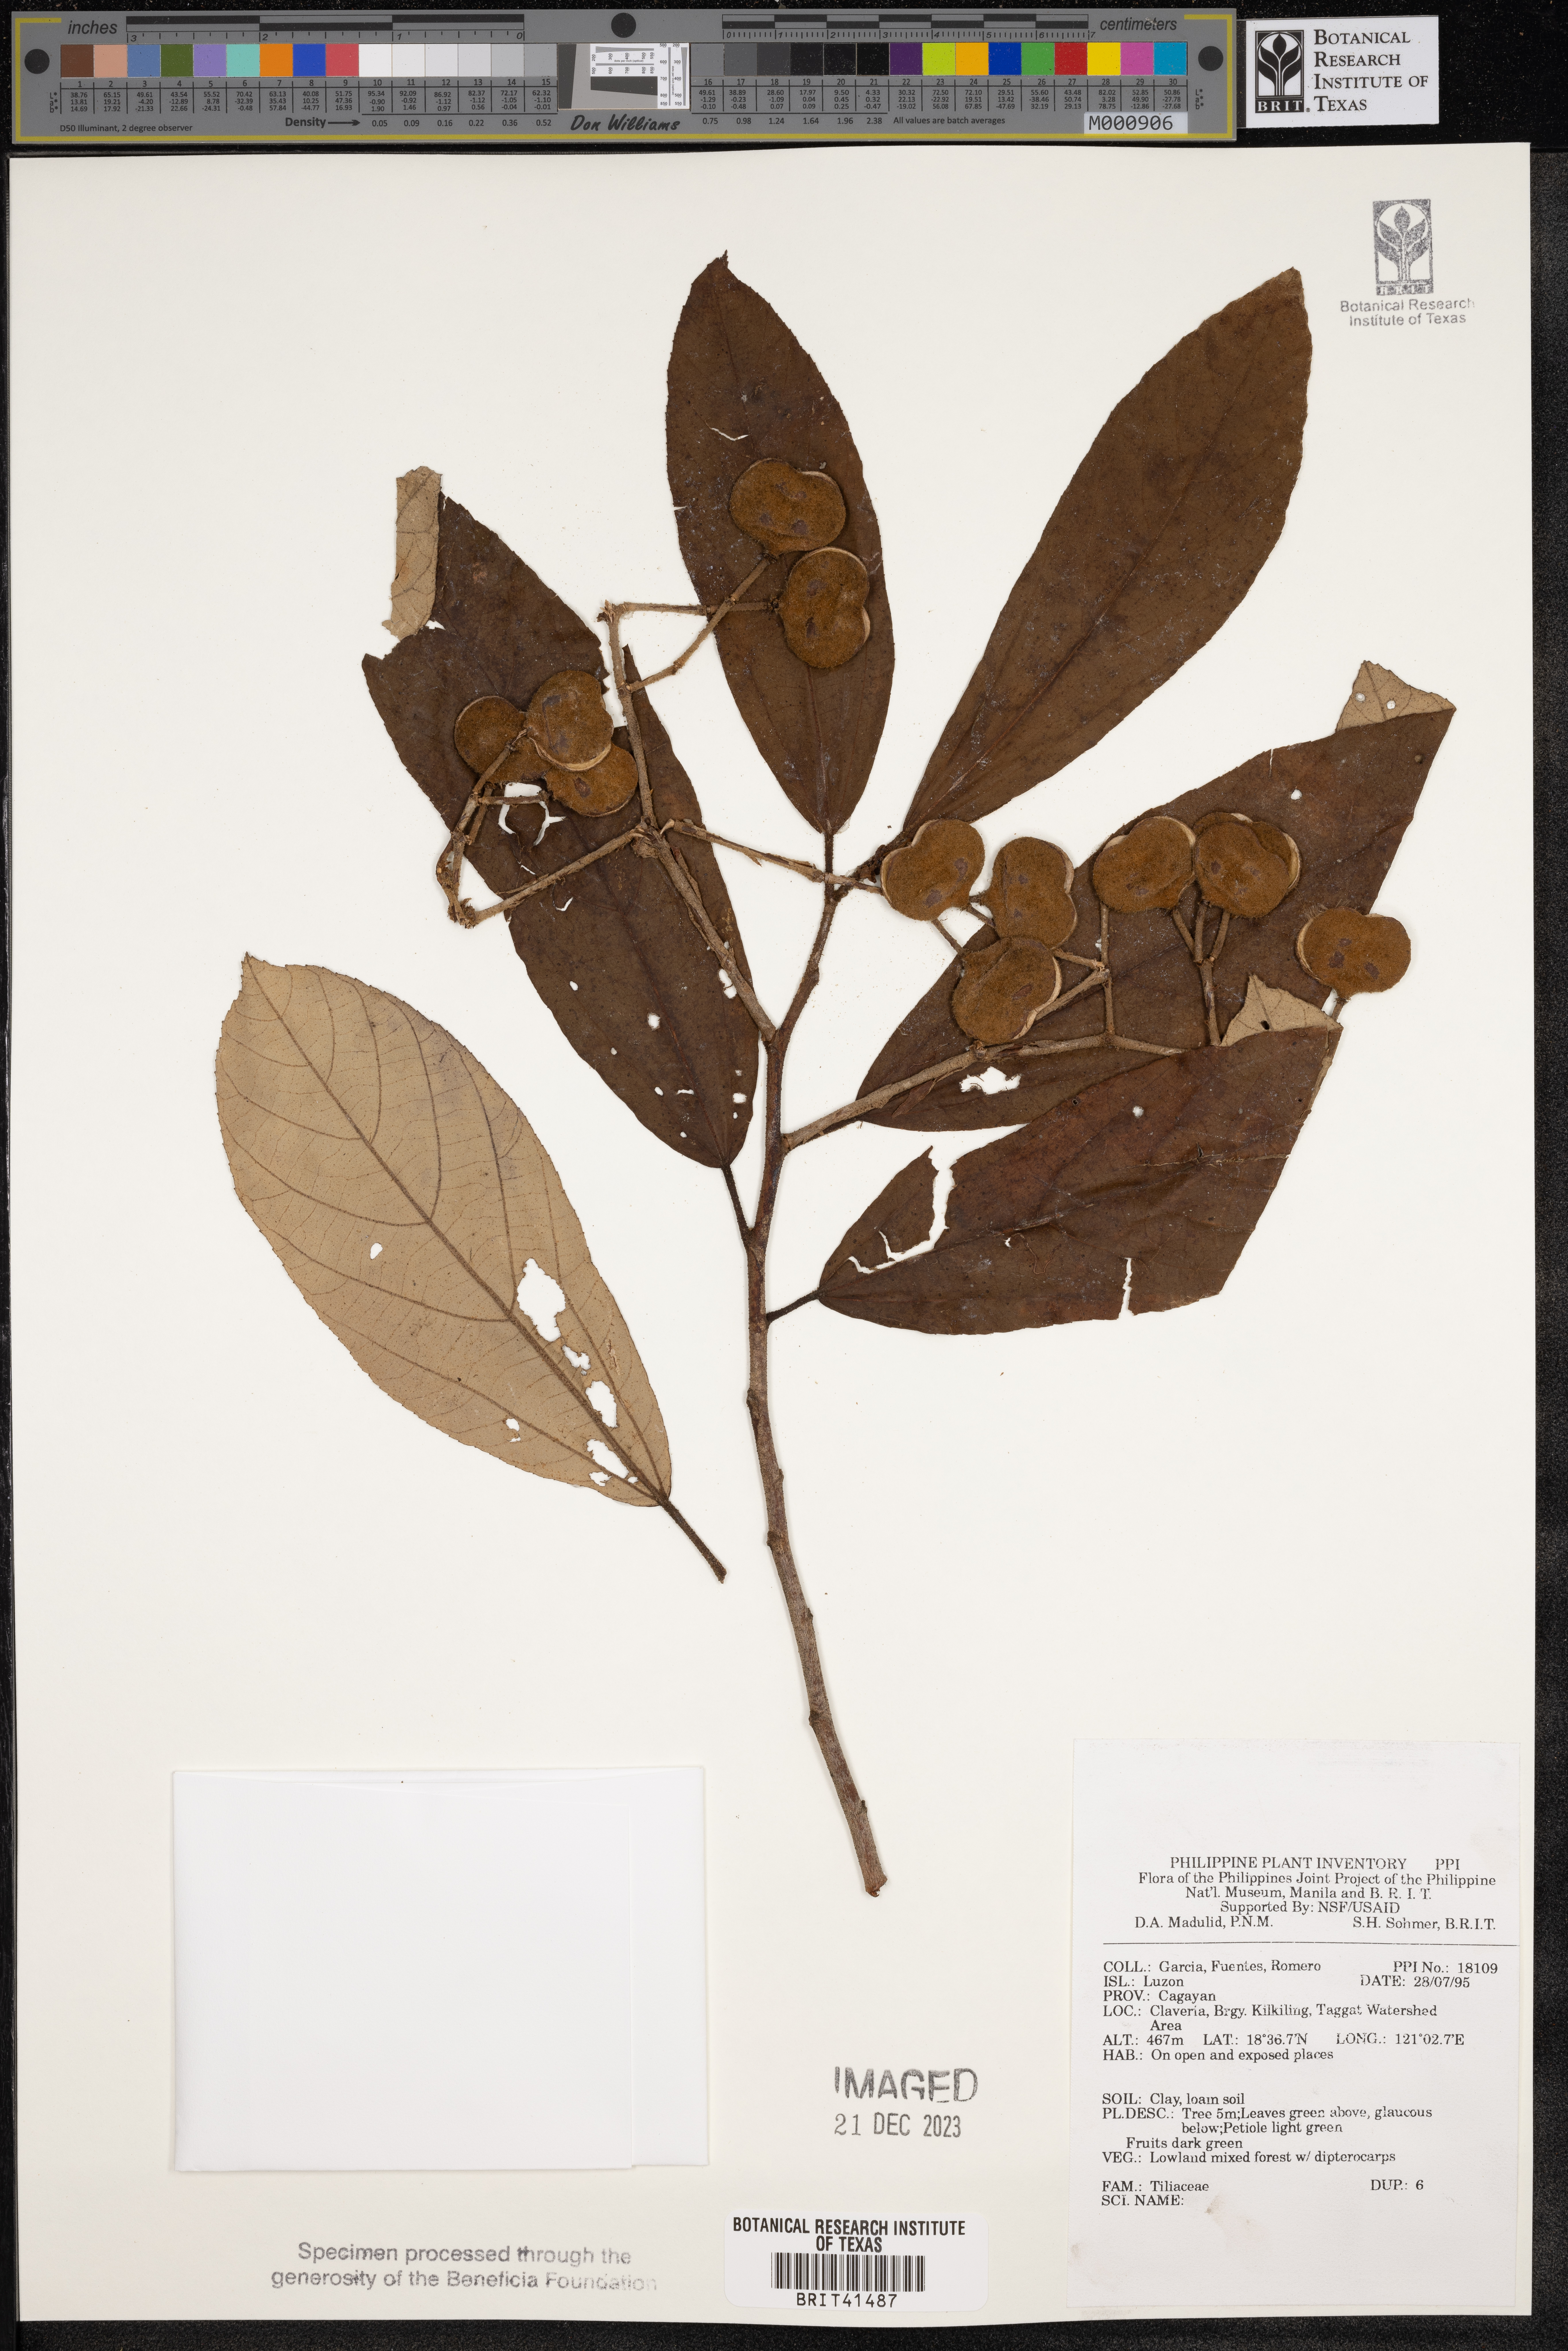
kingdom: Plantae
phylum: Tracheophyta
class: Magnoliopsida
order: Malvales
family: Tiliaceae
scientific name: Tiliaceae
